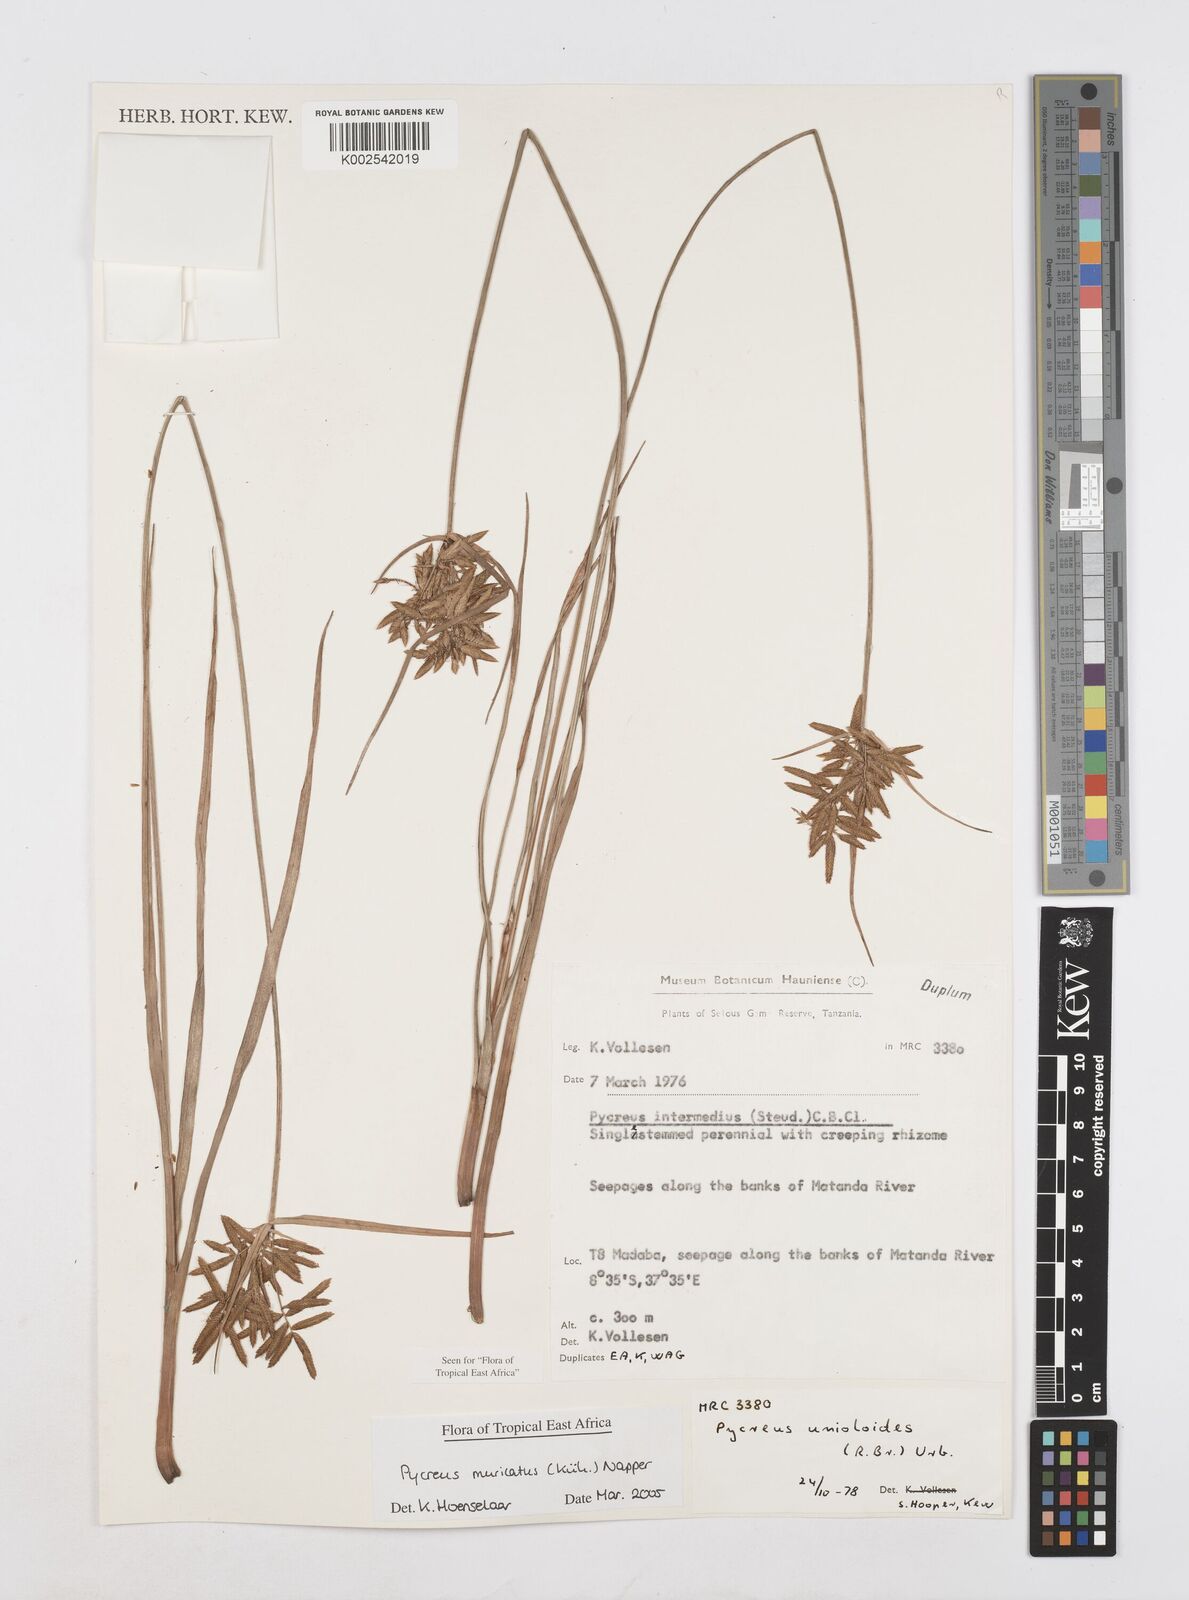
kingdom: Plantae
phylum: Tracheophyta
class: Liliopsida
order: Poales
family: Cyperaceae
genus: Cyperus
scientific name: Cyperus nigricans
